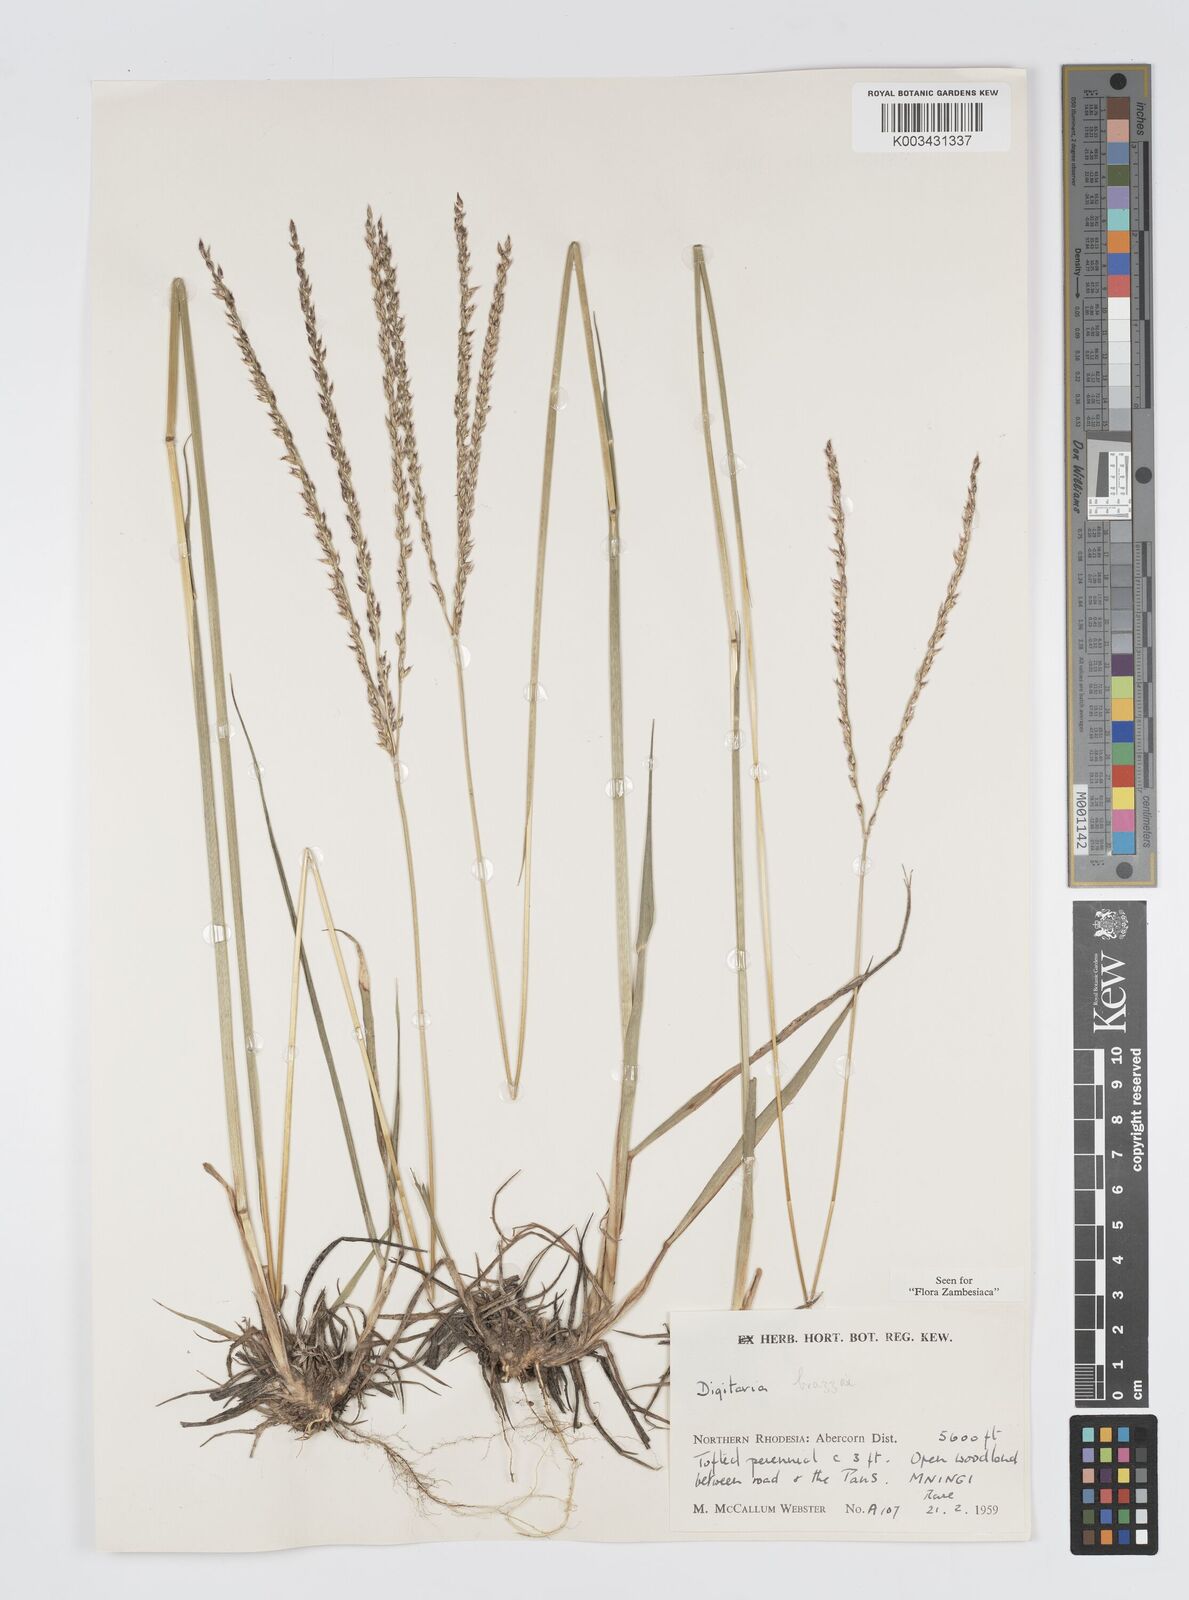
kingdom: Plantae
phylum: Tracheophyta
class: Liliopsida
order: Poales
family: Poaceae
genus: Digitaria
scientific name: Digitaria brazzae
